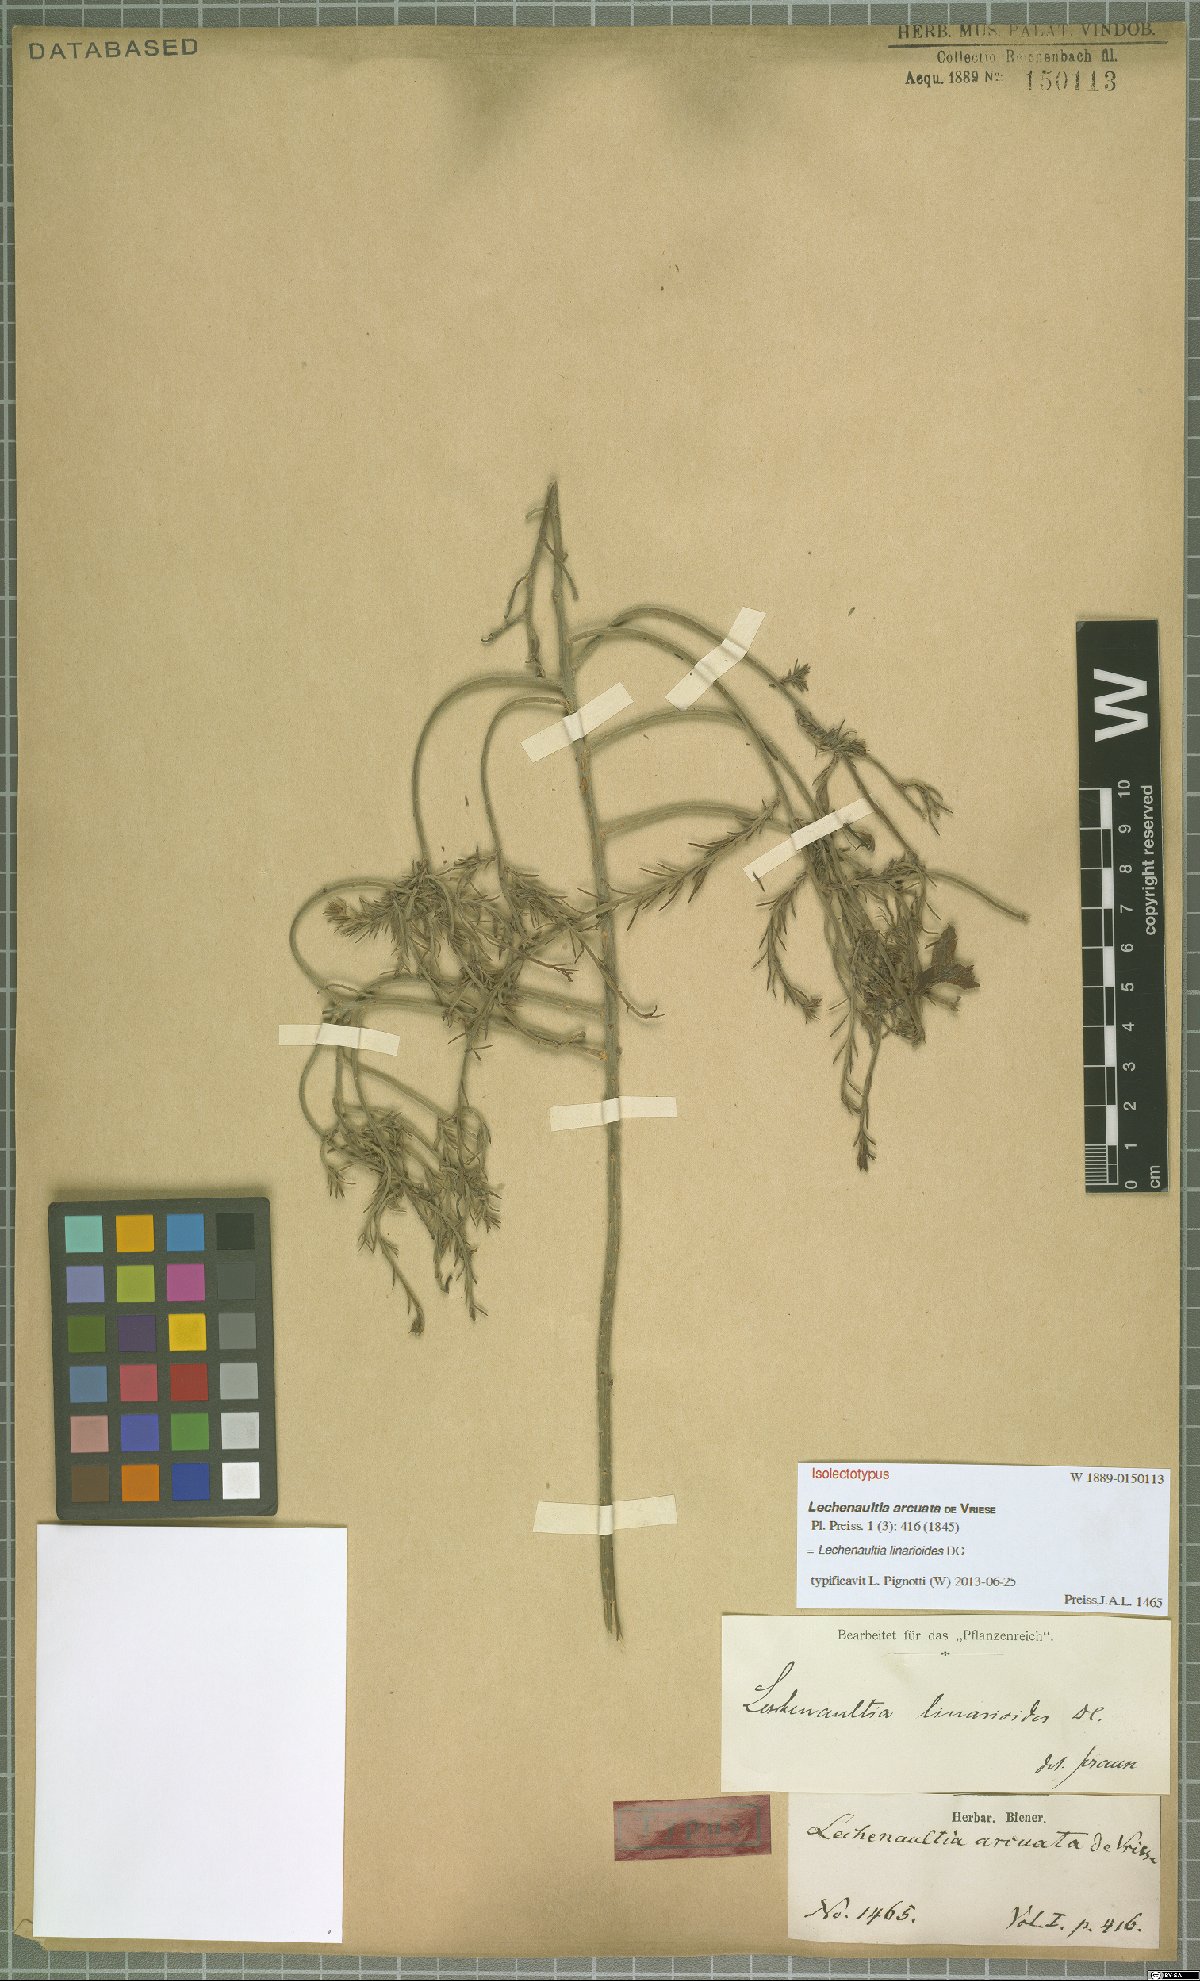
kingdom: Plantae
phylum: Tracheophyta
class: Magnoliopsida
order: Asterales
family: Goodeniaceae
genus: Lechenaultia
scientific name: Lechenaultia linarioides
